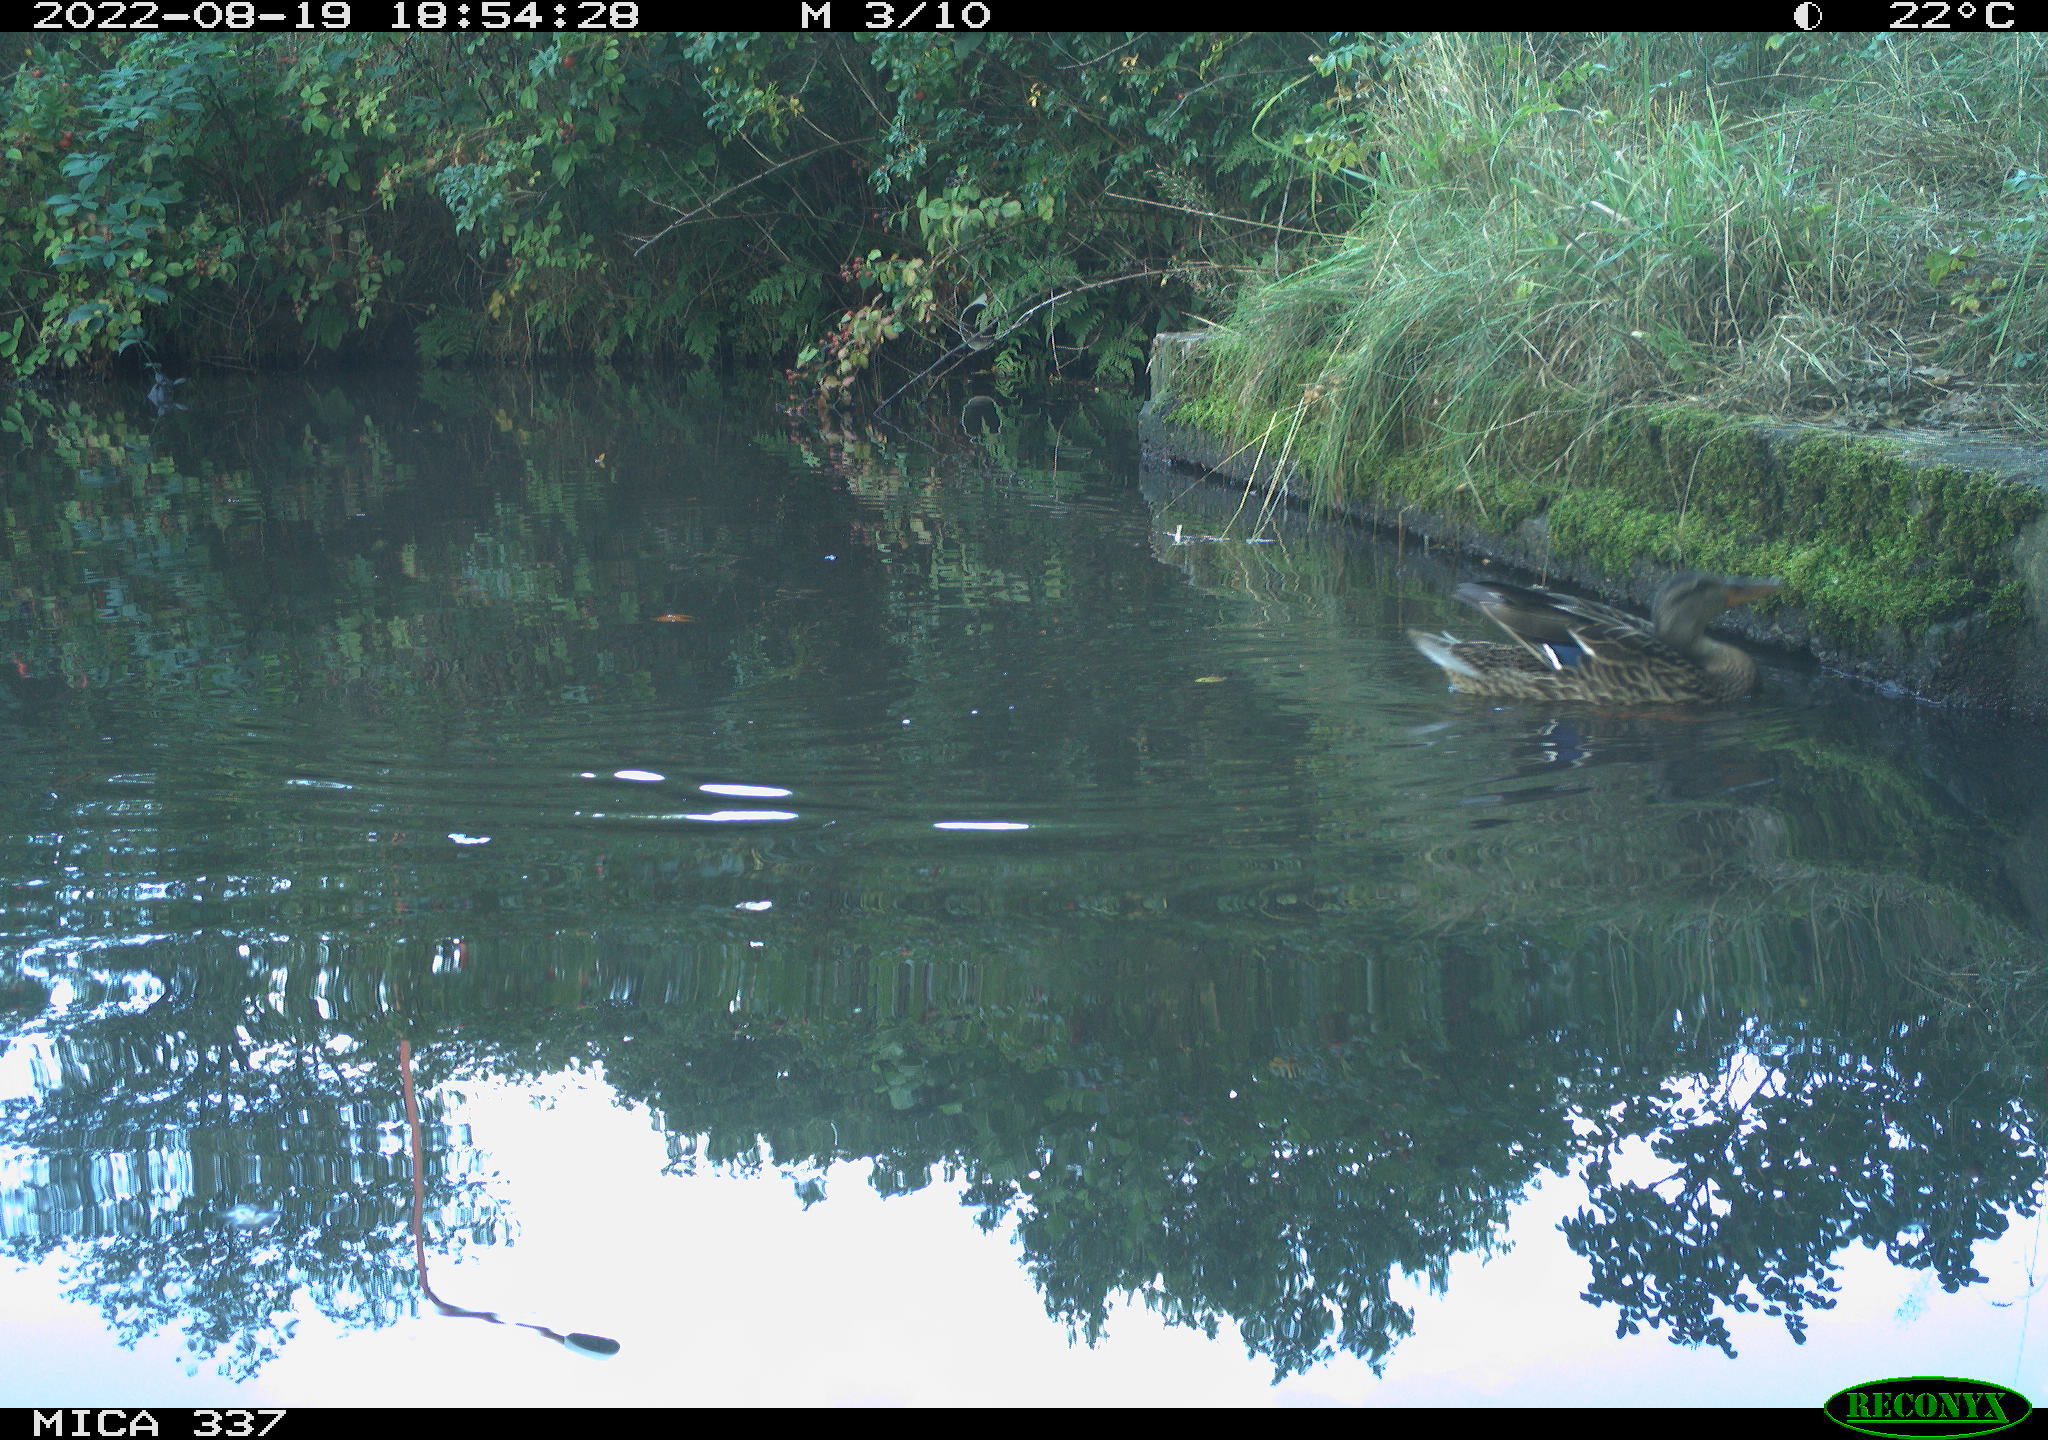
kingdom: Animalia
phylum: Chordata
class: Aves
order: Anseriformes
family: Anatidae
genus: Anas
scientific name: Anas platyrhynchos
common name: Mallard
